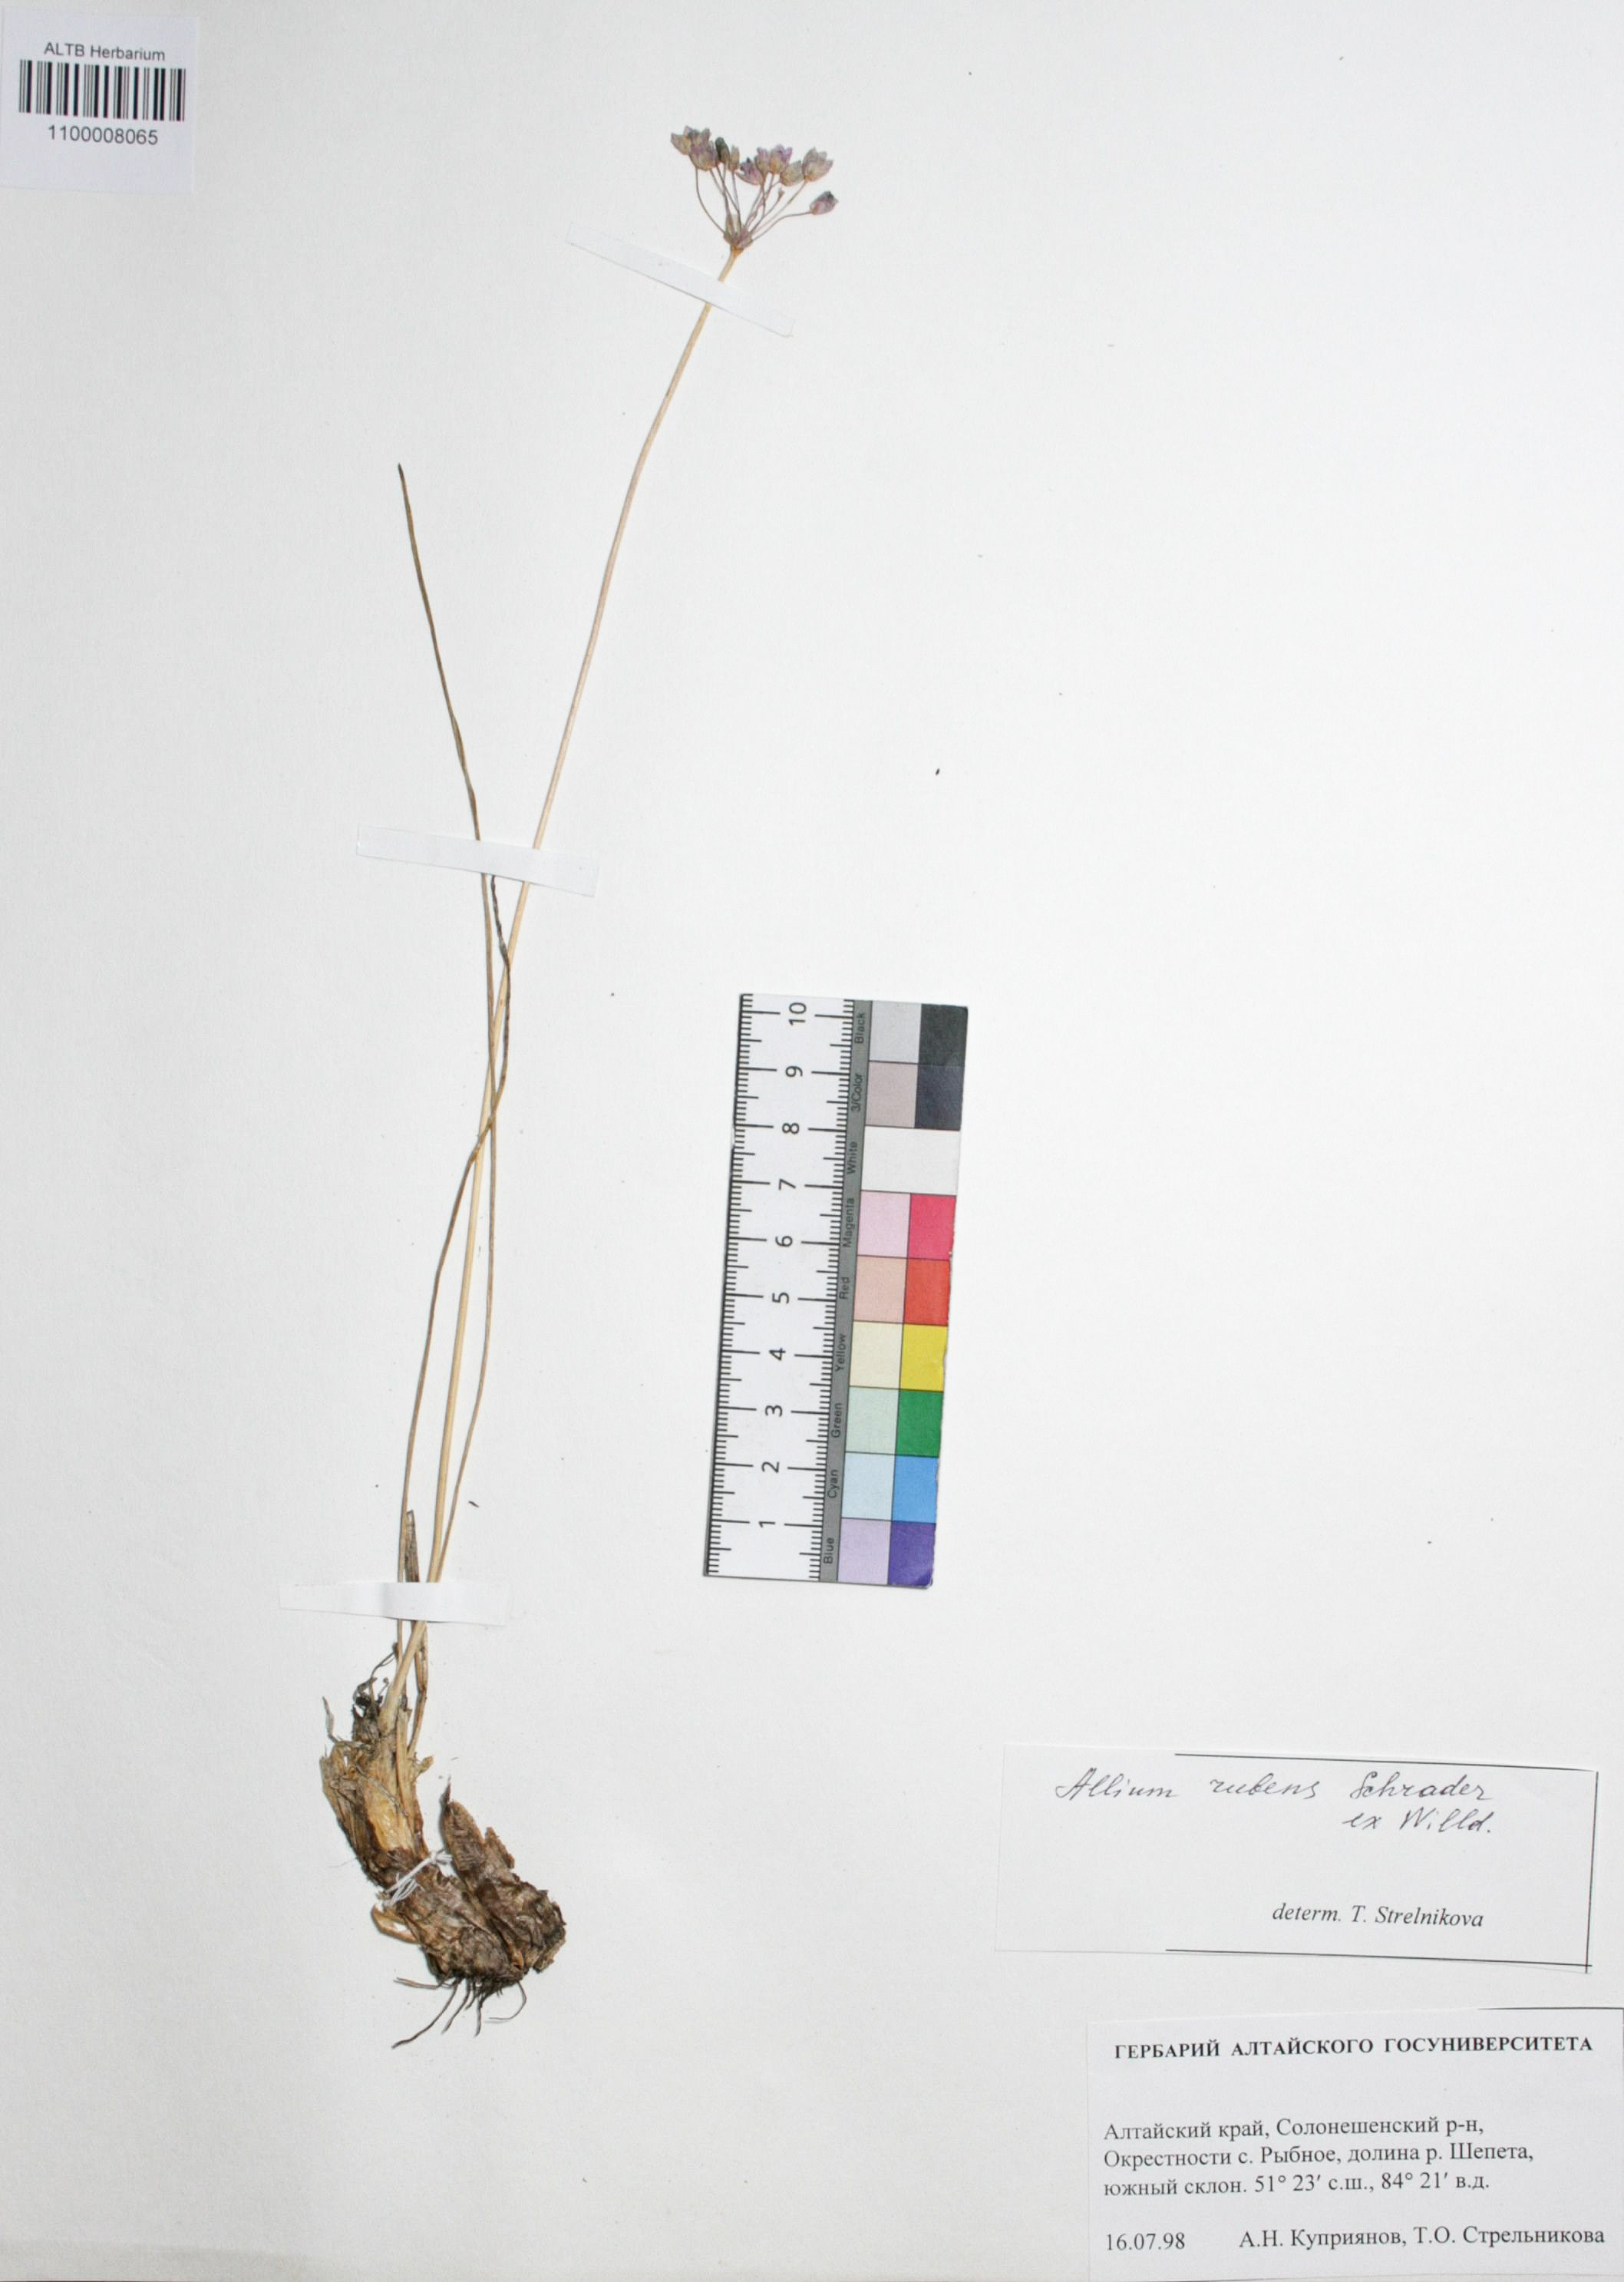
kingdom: Plantae
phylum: Tracheophyta
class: Liliopsida
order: Asparagales
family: Amaryllidaceae
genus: Allium
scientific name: Allium rubens
